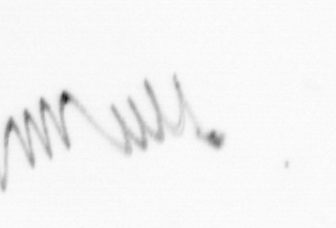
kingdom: Chromista
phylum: Ochrophyta
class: Bacillariophyceae
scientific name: Bacillariophyceae
